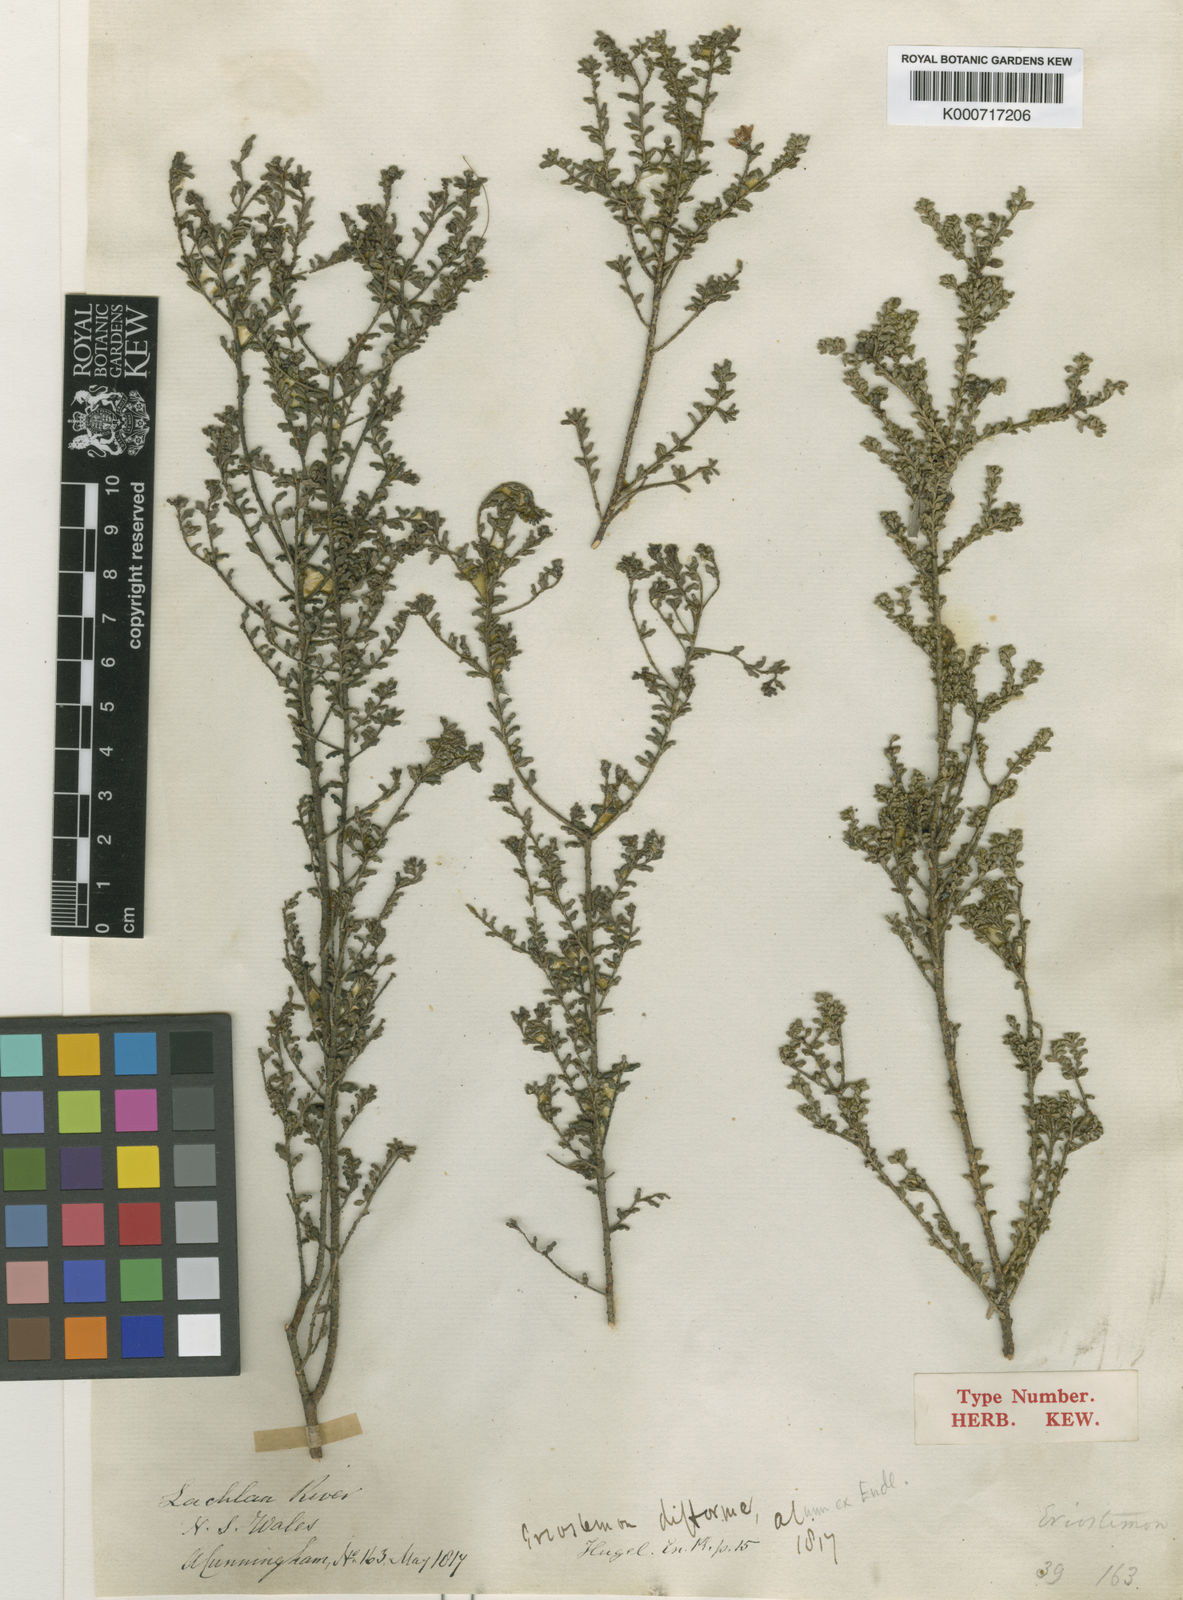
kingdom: Plantae
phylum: Tracheophyta
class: Magnoliopsida
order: Sapindales
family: Rutaceae
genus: Philotheca
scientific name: Philotheca difformis
